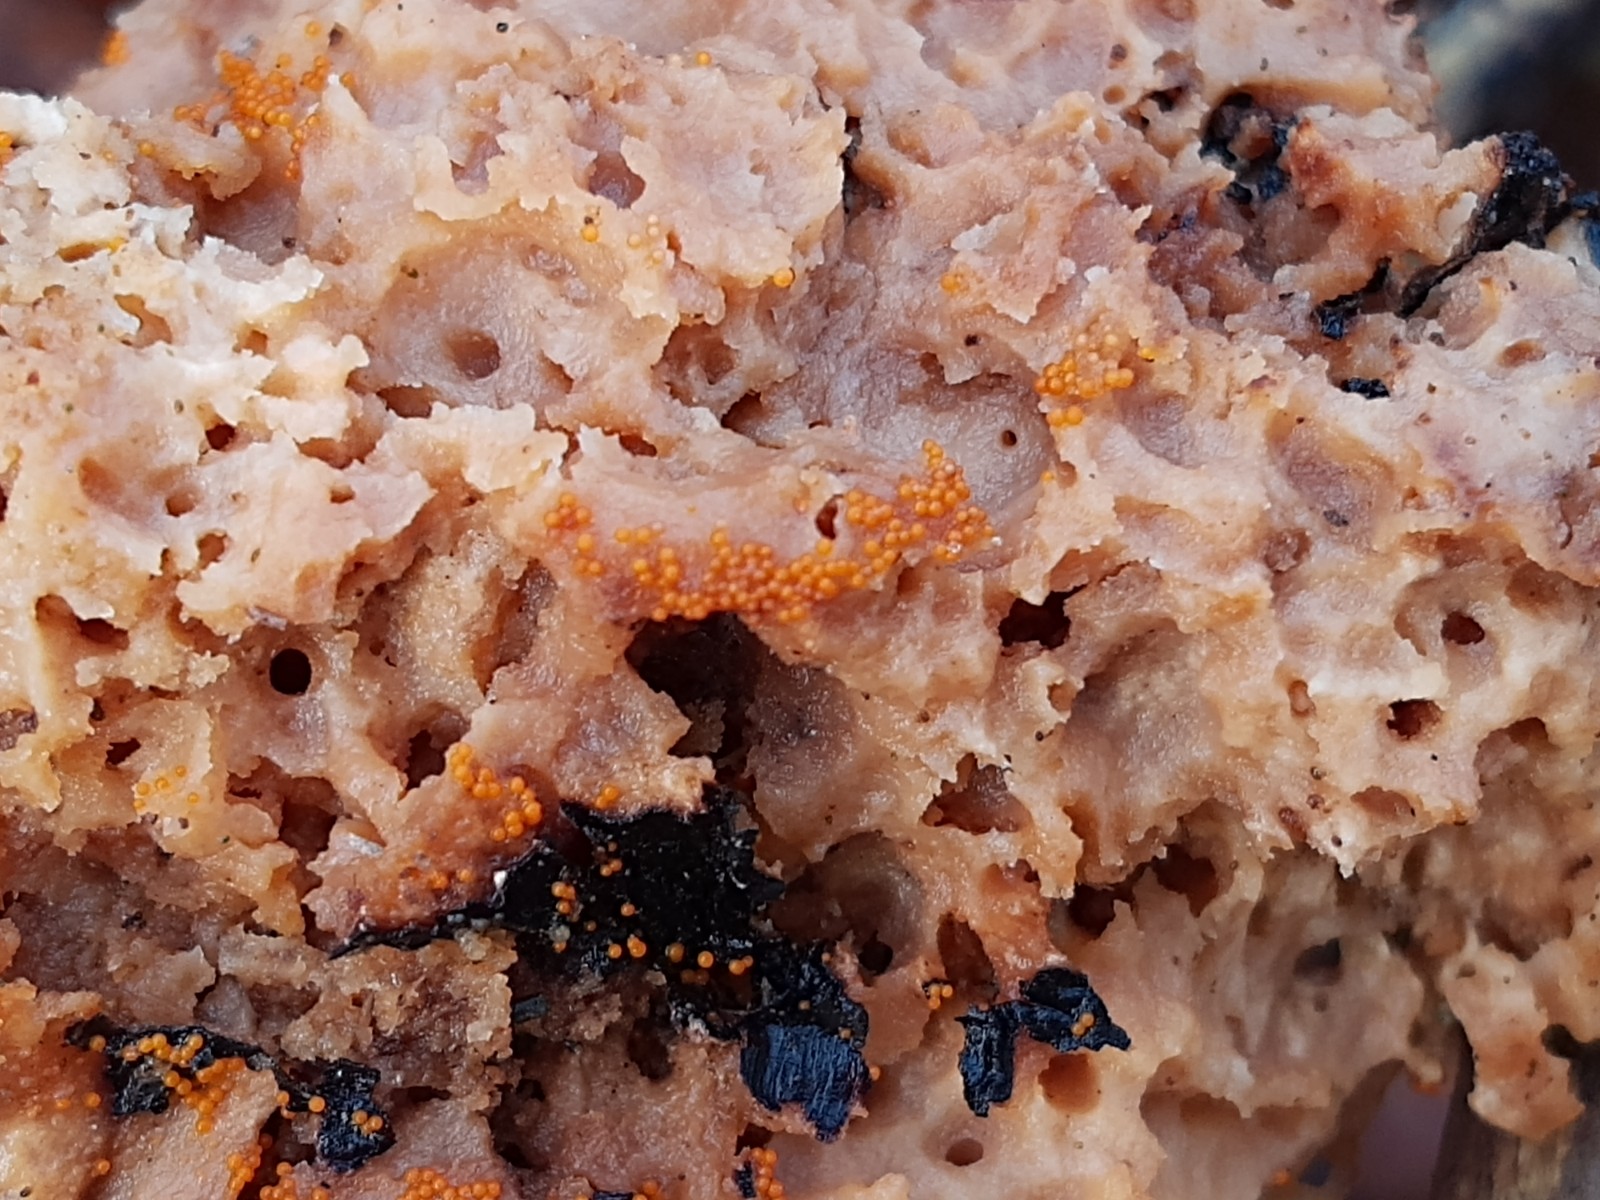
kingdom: Fungi
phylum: Ascomycota
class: Sordariomycetes
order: Hypocreales
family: Nectriaceae
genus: Hydropisphaera
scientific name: Hydropisphaera peziza
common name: skålformet gyldenkerne
